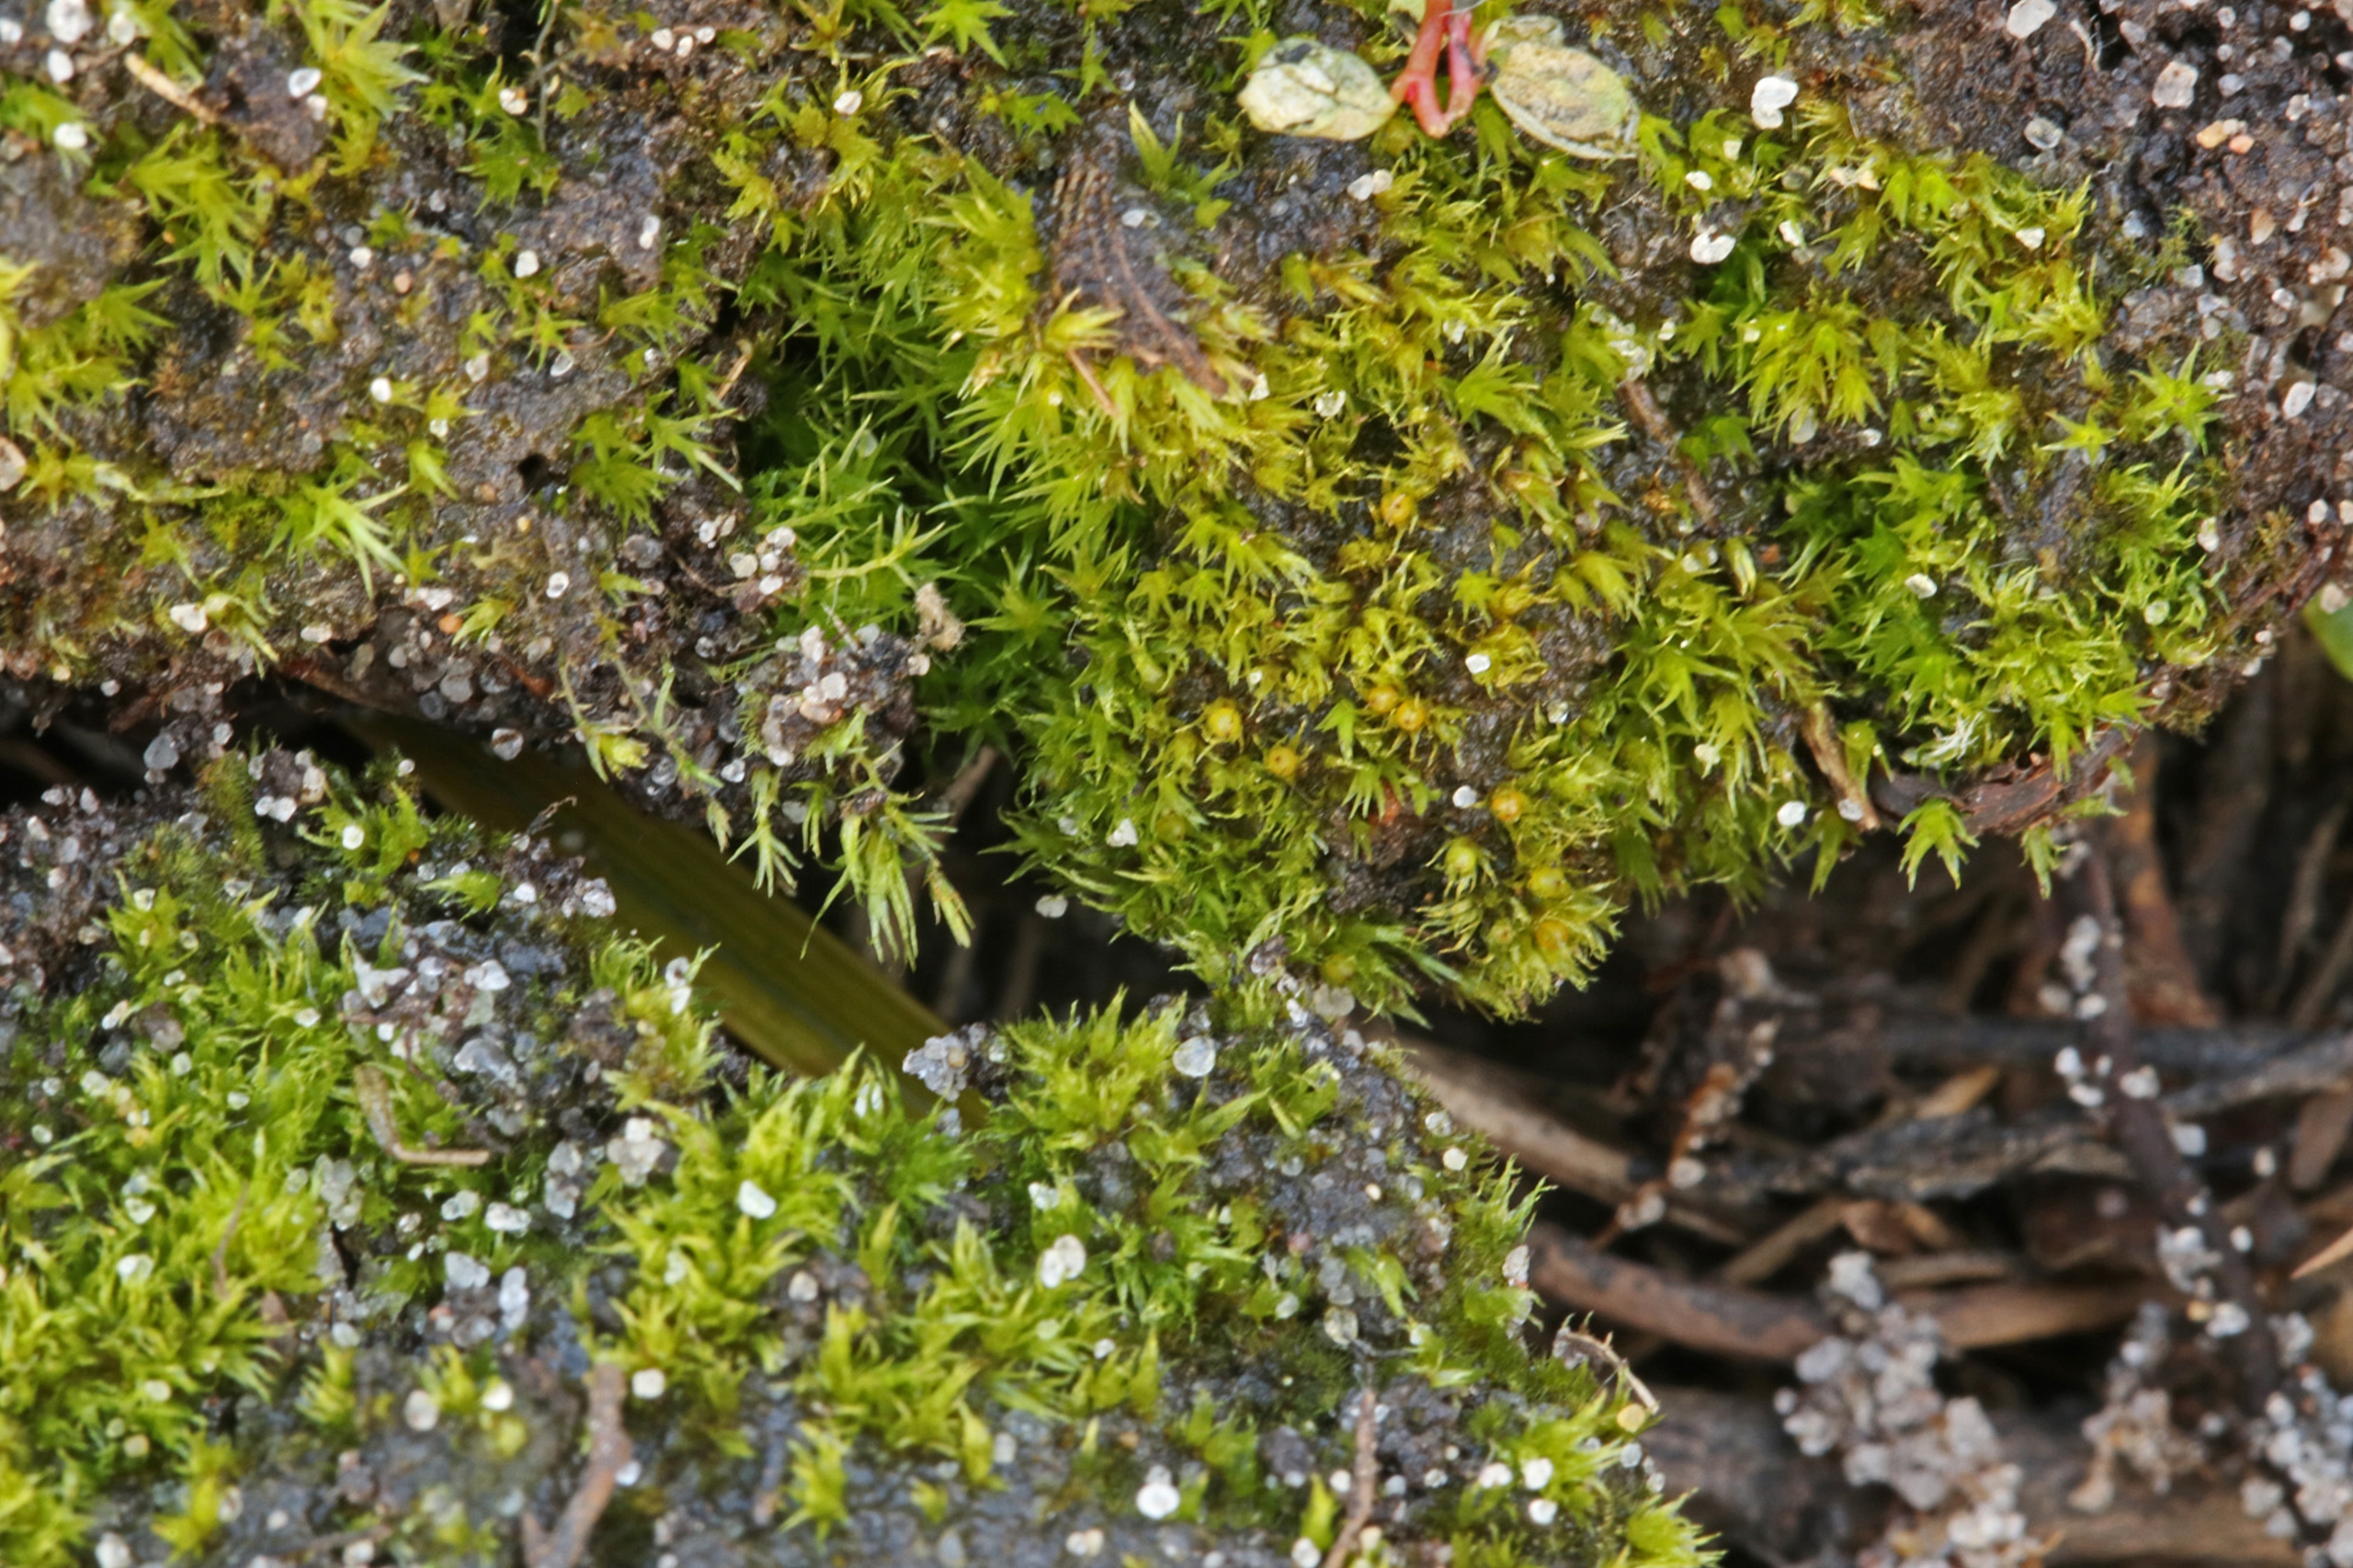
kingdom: Plantae
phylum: Bryophyta
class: Bryopsida
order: Pottiales
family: Ephemeraceae
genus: Ephemerum
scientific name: Ephemerum serratum
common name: Vortet døgnmos
